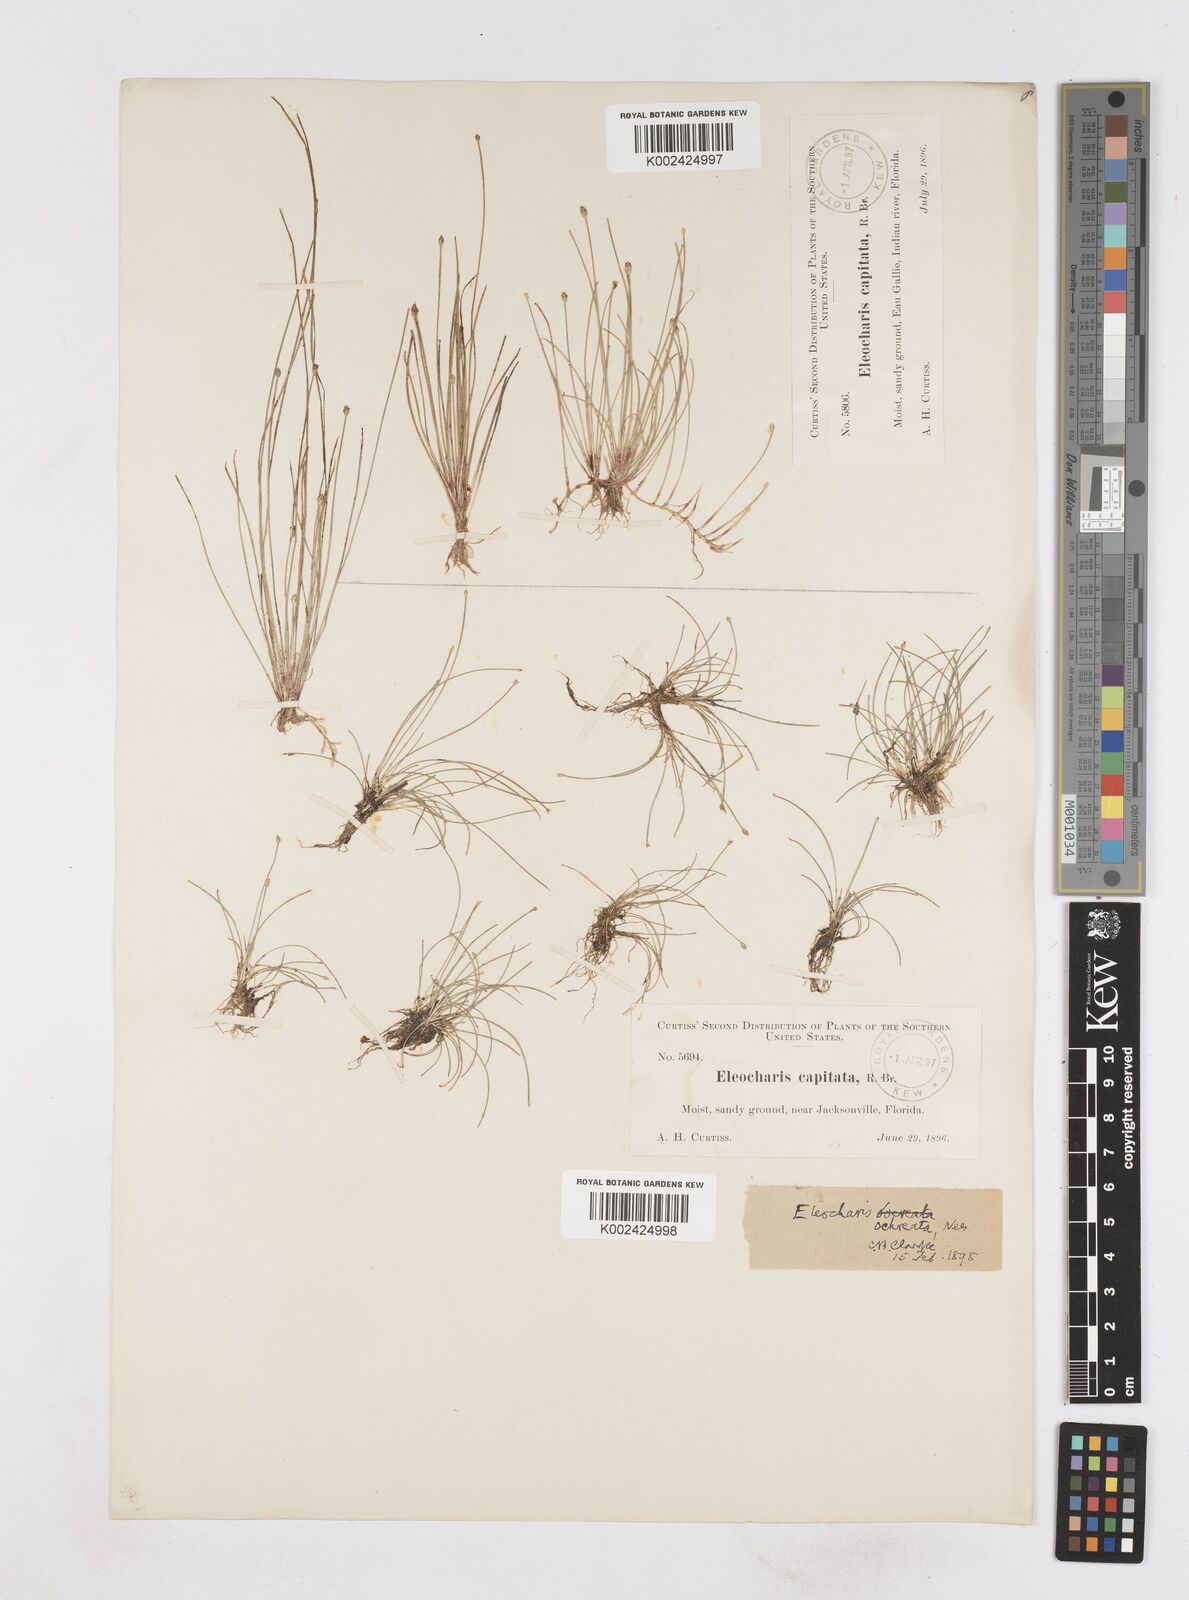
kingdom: Plantae
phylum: Tracheophyta
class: Liliopsida
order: Poales
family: Cyperaceae
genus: Eleocharis
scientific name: Eleocharis flavescens
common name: Yellow spikerush
